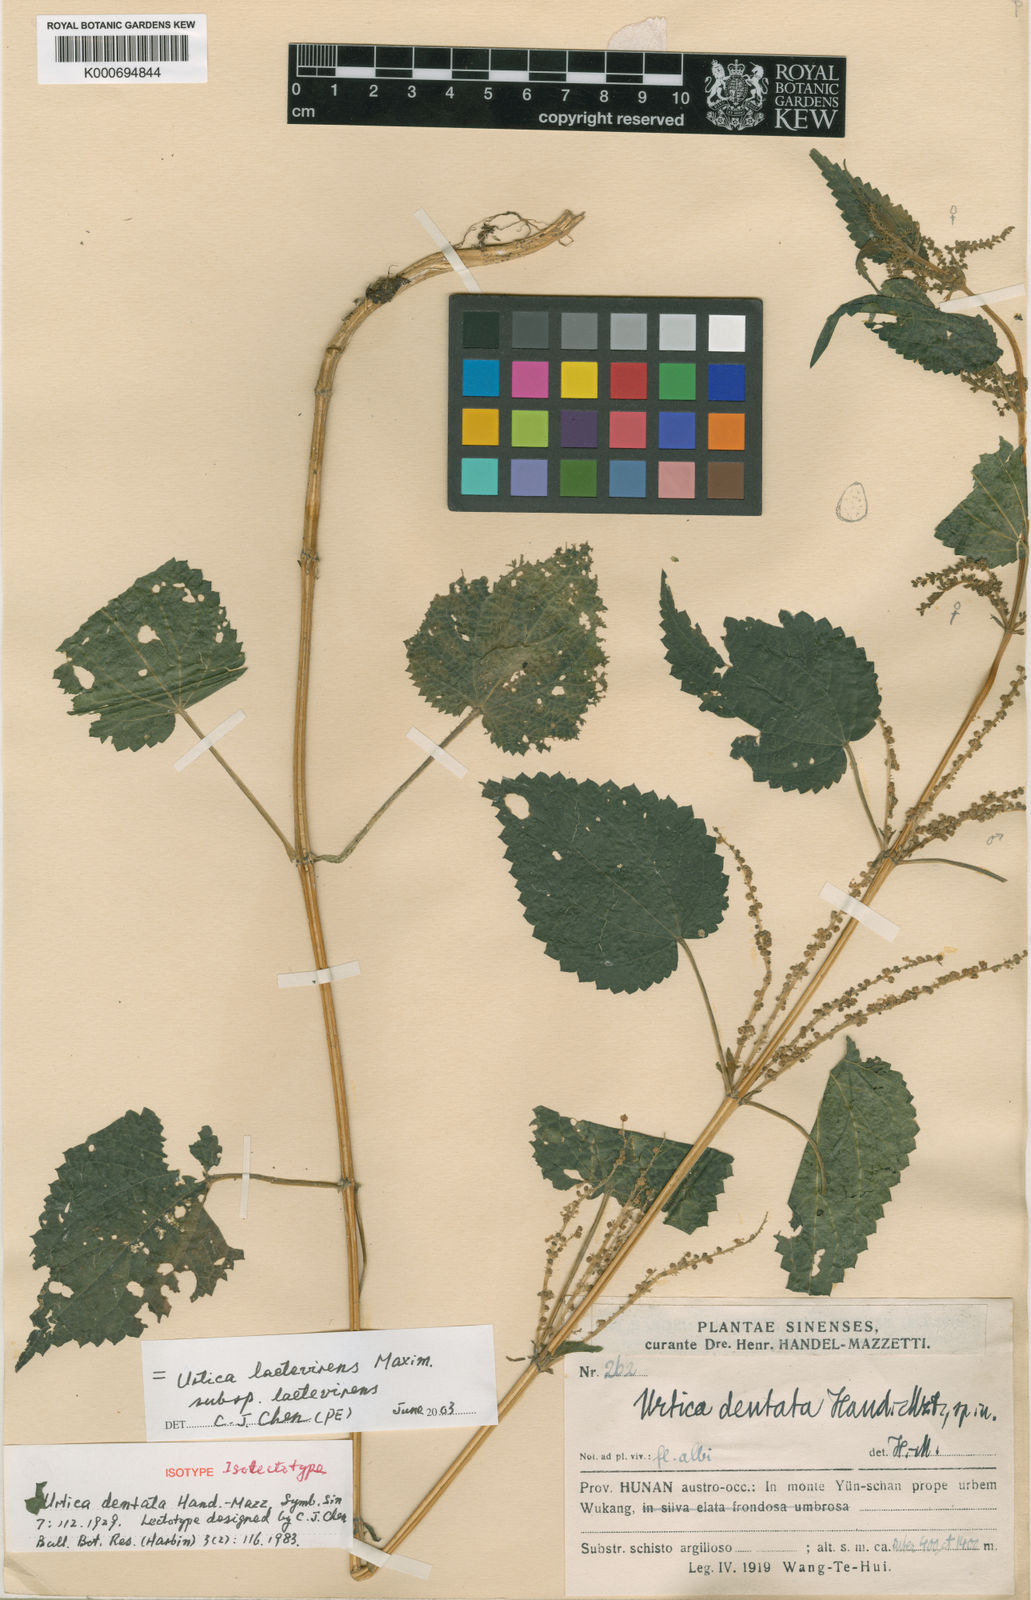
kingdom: Plantae
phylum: Tracheophyta
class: Magnoliopsida
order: Rosales
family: Urticaceae
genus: Urtica
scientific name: Urtica thunbergiana
